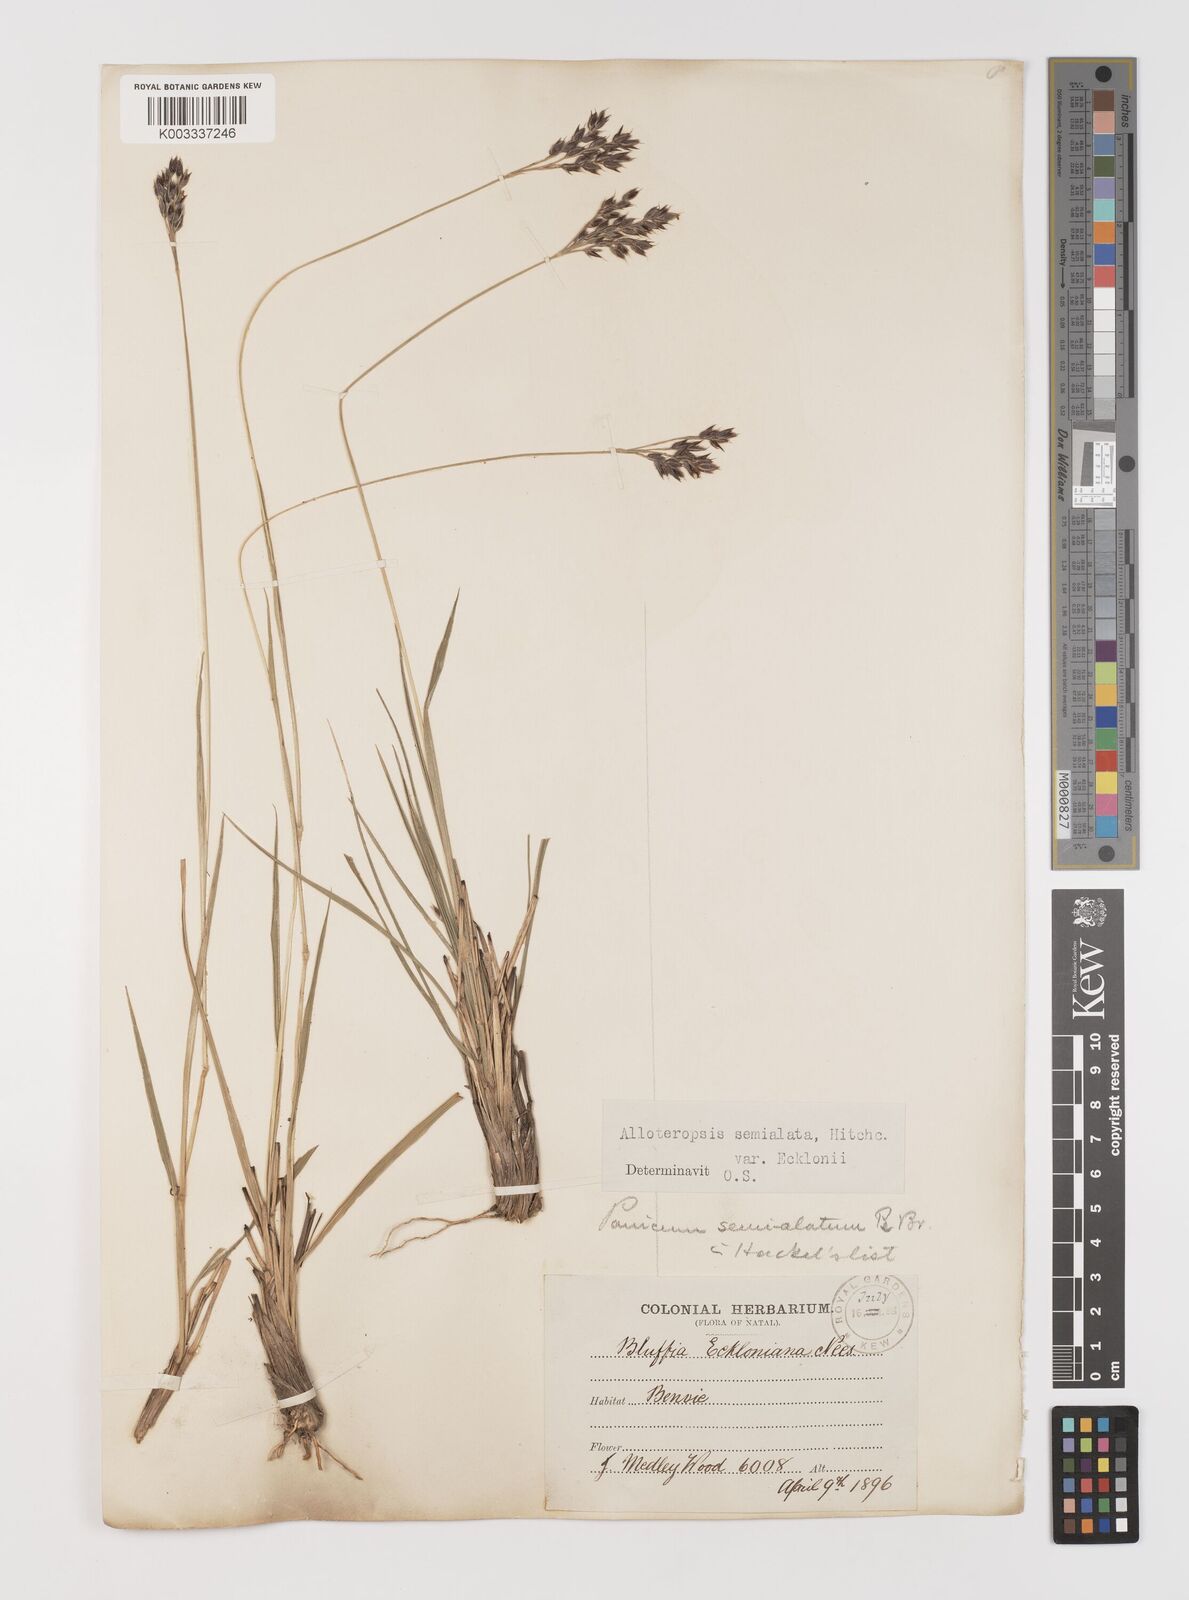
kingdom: Plantae
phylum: Tracheophyta
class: Liliopsida
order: Poales
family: Poaceae
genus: Alloteropsis
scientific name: Alloteropsis semialata
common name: Cockatoo grass
